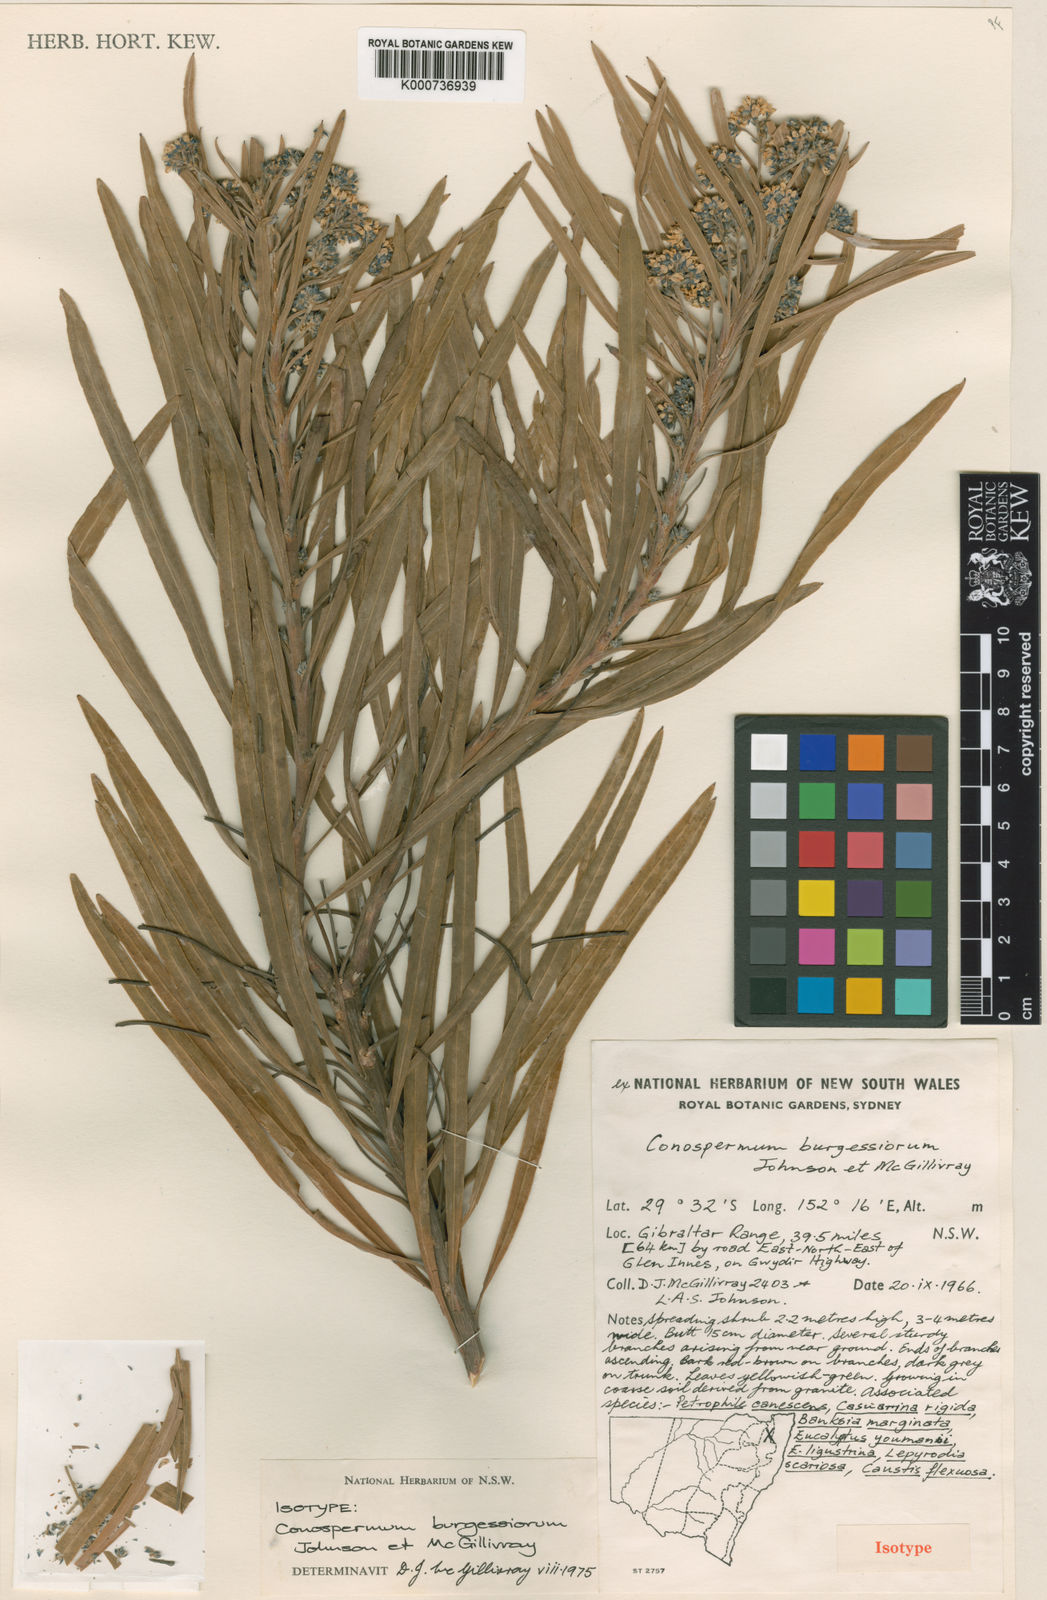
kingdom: Plantae
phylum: Tracheophyta
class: Magnoliopsida
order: Proteales
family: Proteaceae
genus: Conospermum
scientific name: Conospermum burgessiorum
